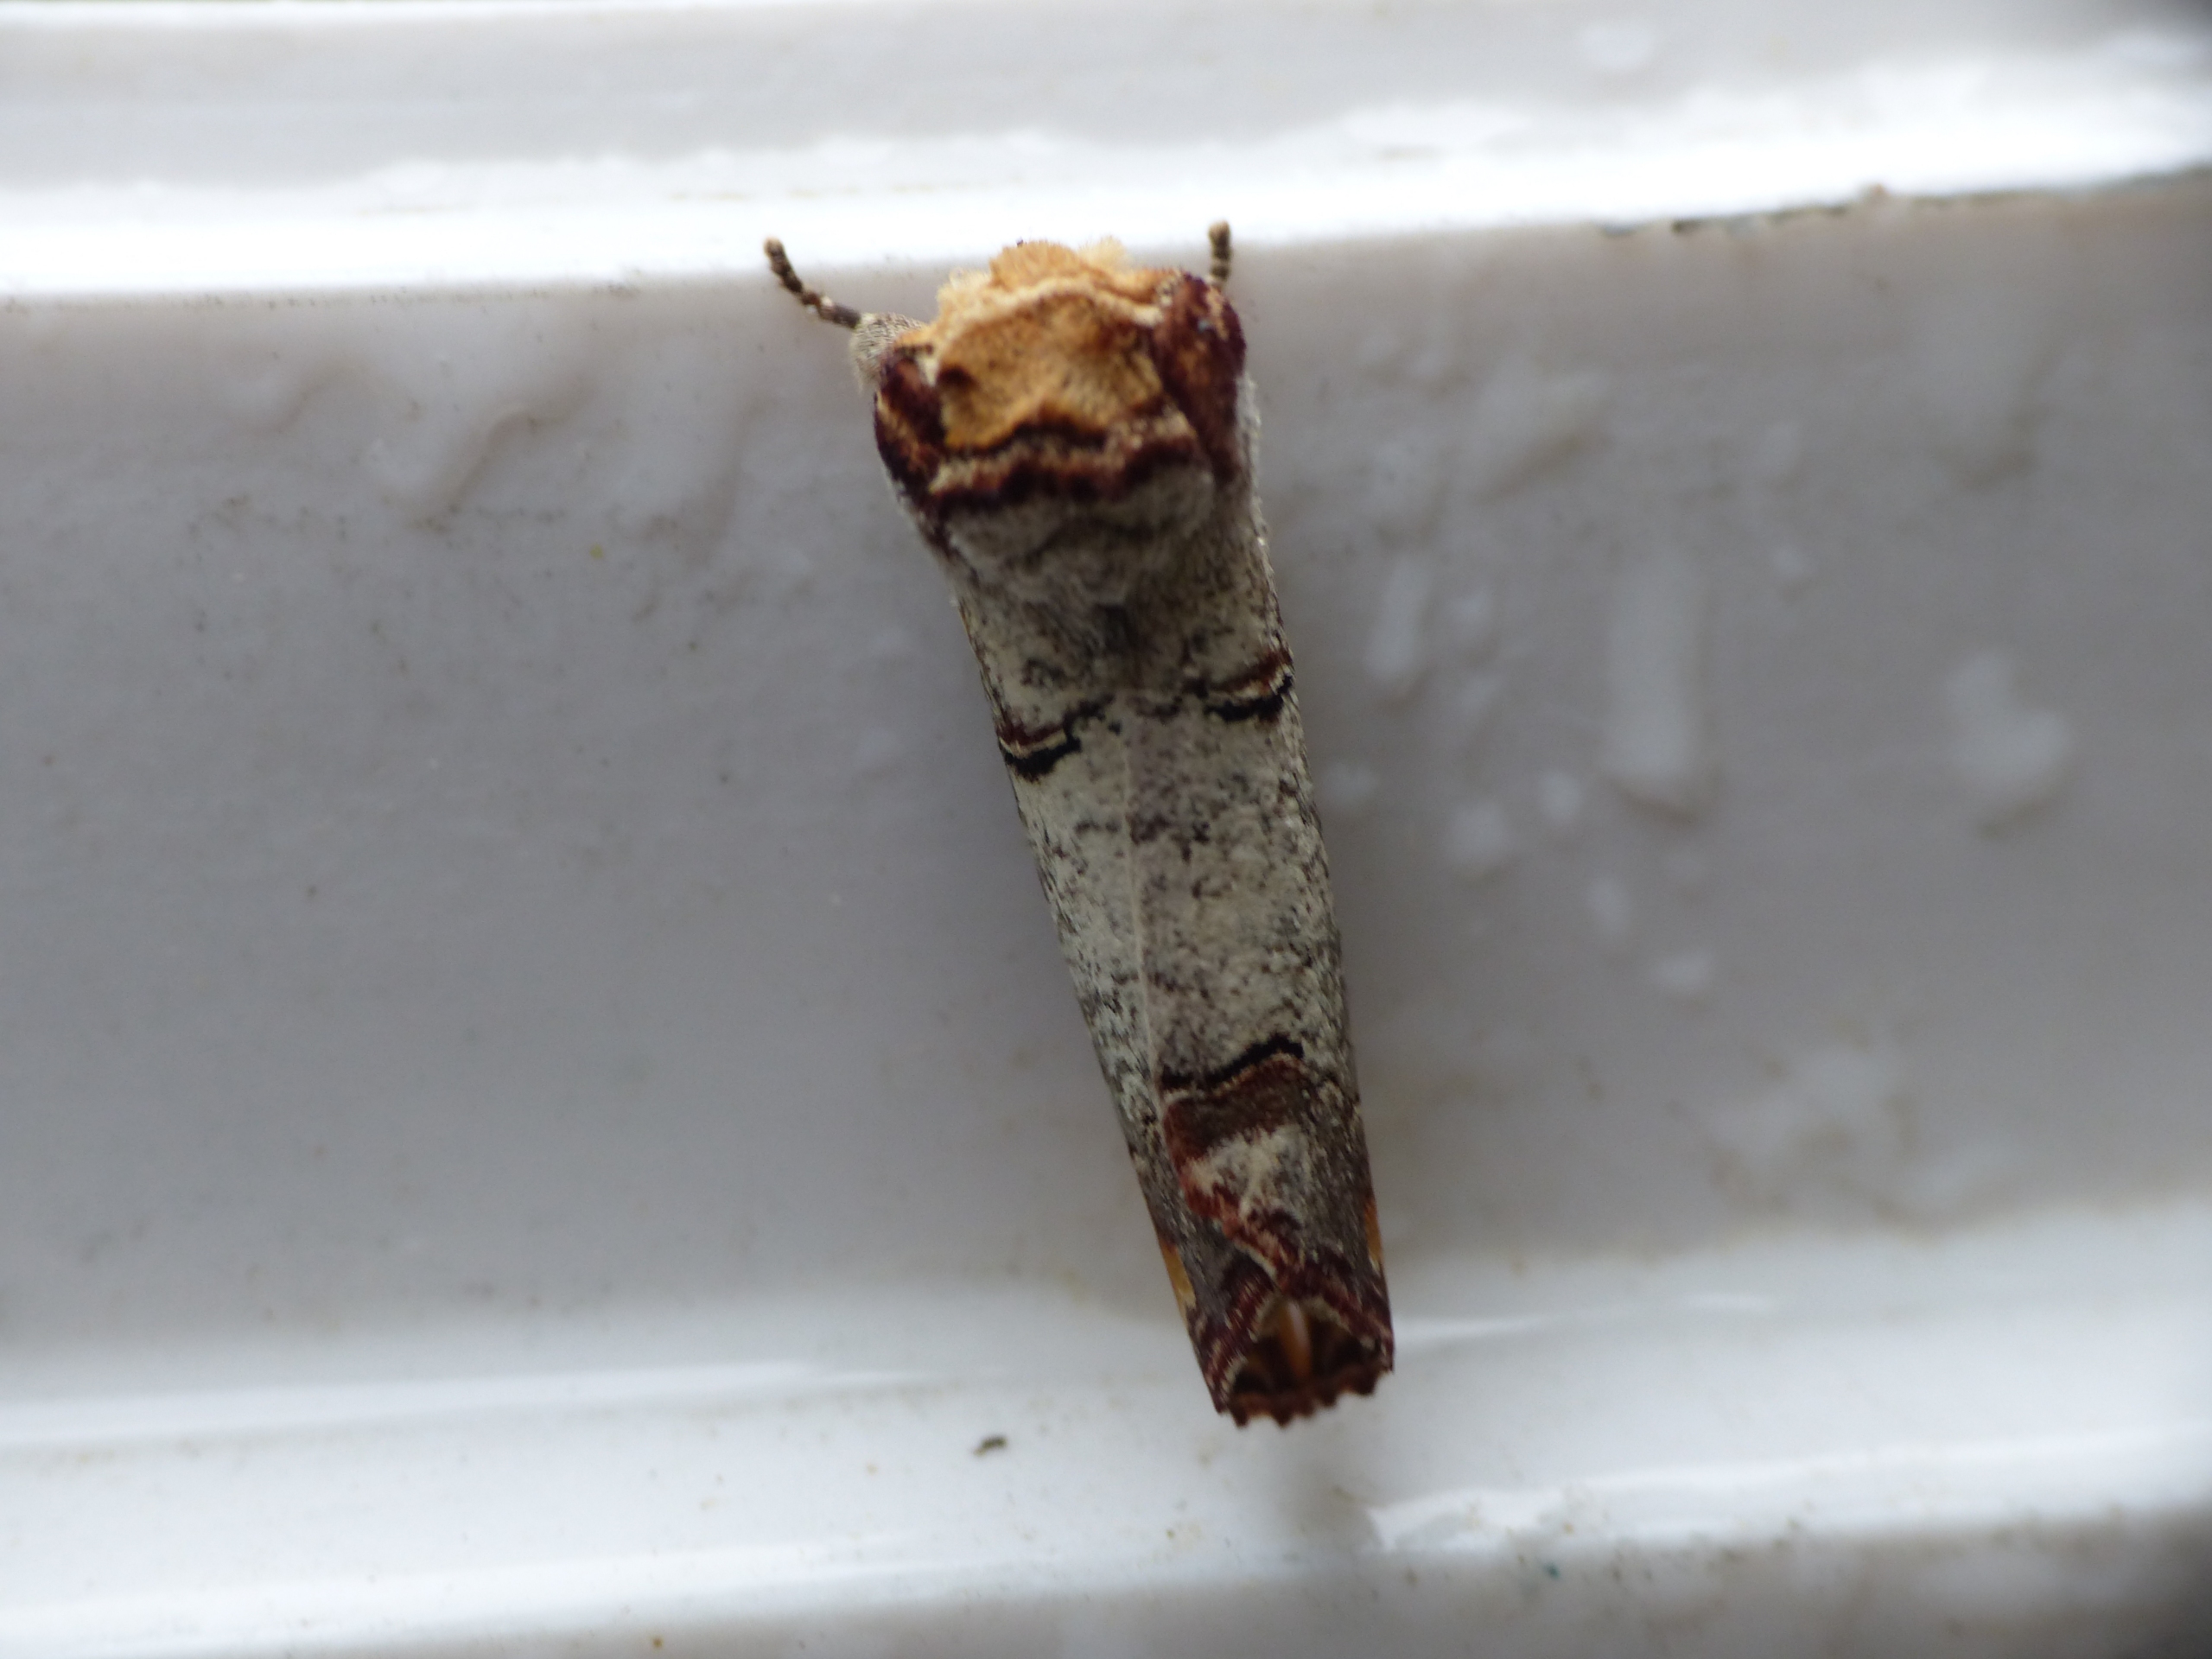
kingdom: Animalia
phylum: Arthropoda
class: Insecta
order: Lepidoptera
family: Notodontidae
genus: Phalera
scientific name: Phalera bucephala
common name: Måneplet
